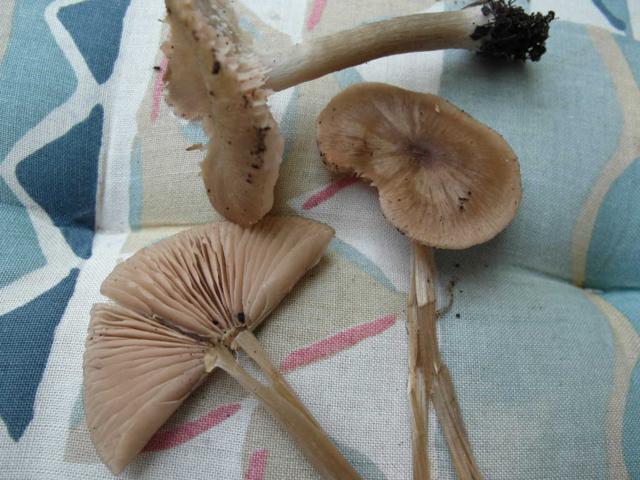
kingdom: Fungi
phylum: Basidiomycota
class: Agaricomycetes
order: Agaricales
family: Entolomataceae
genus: Entoloma
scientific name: Entoloma conferendum
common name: stjernesporet rødblad
